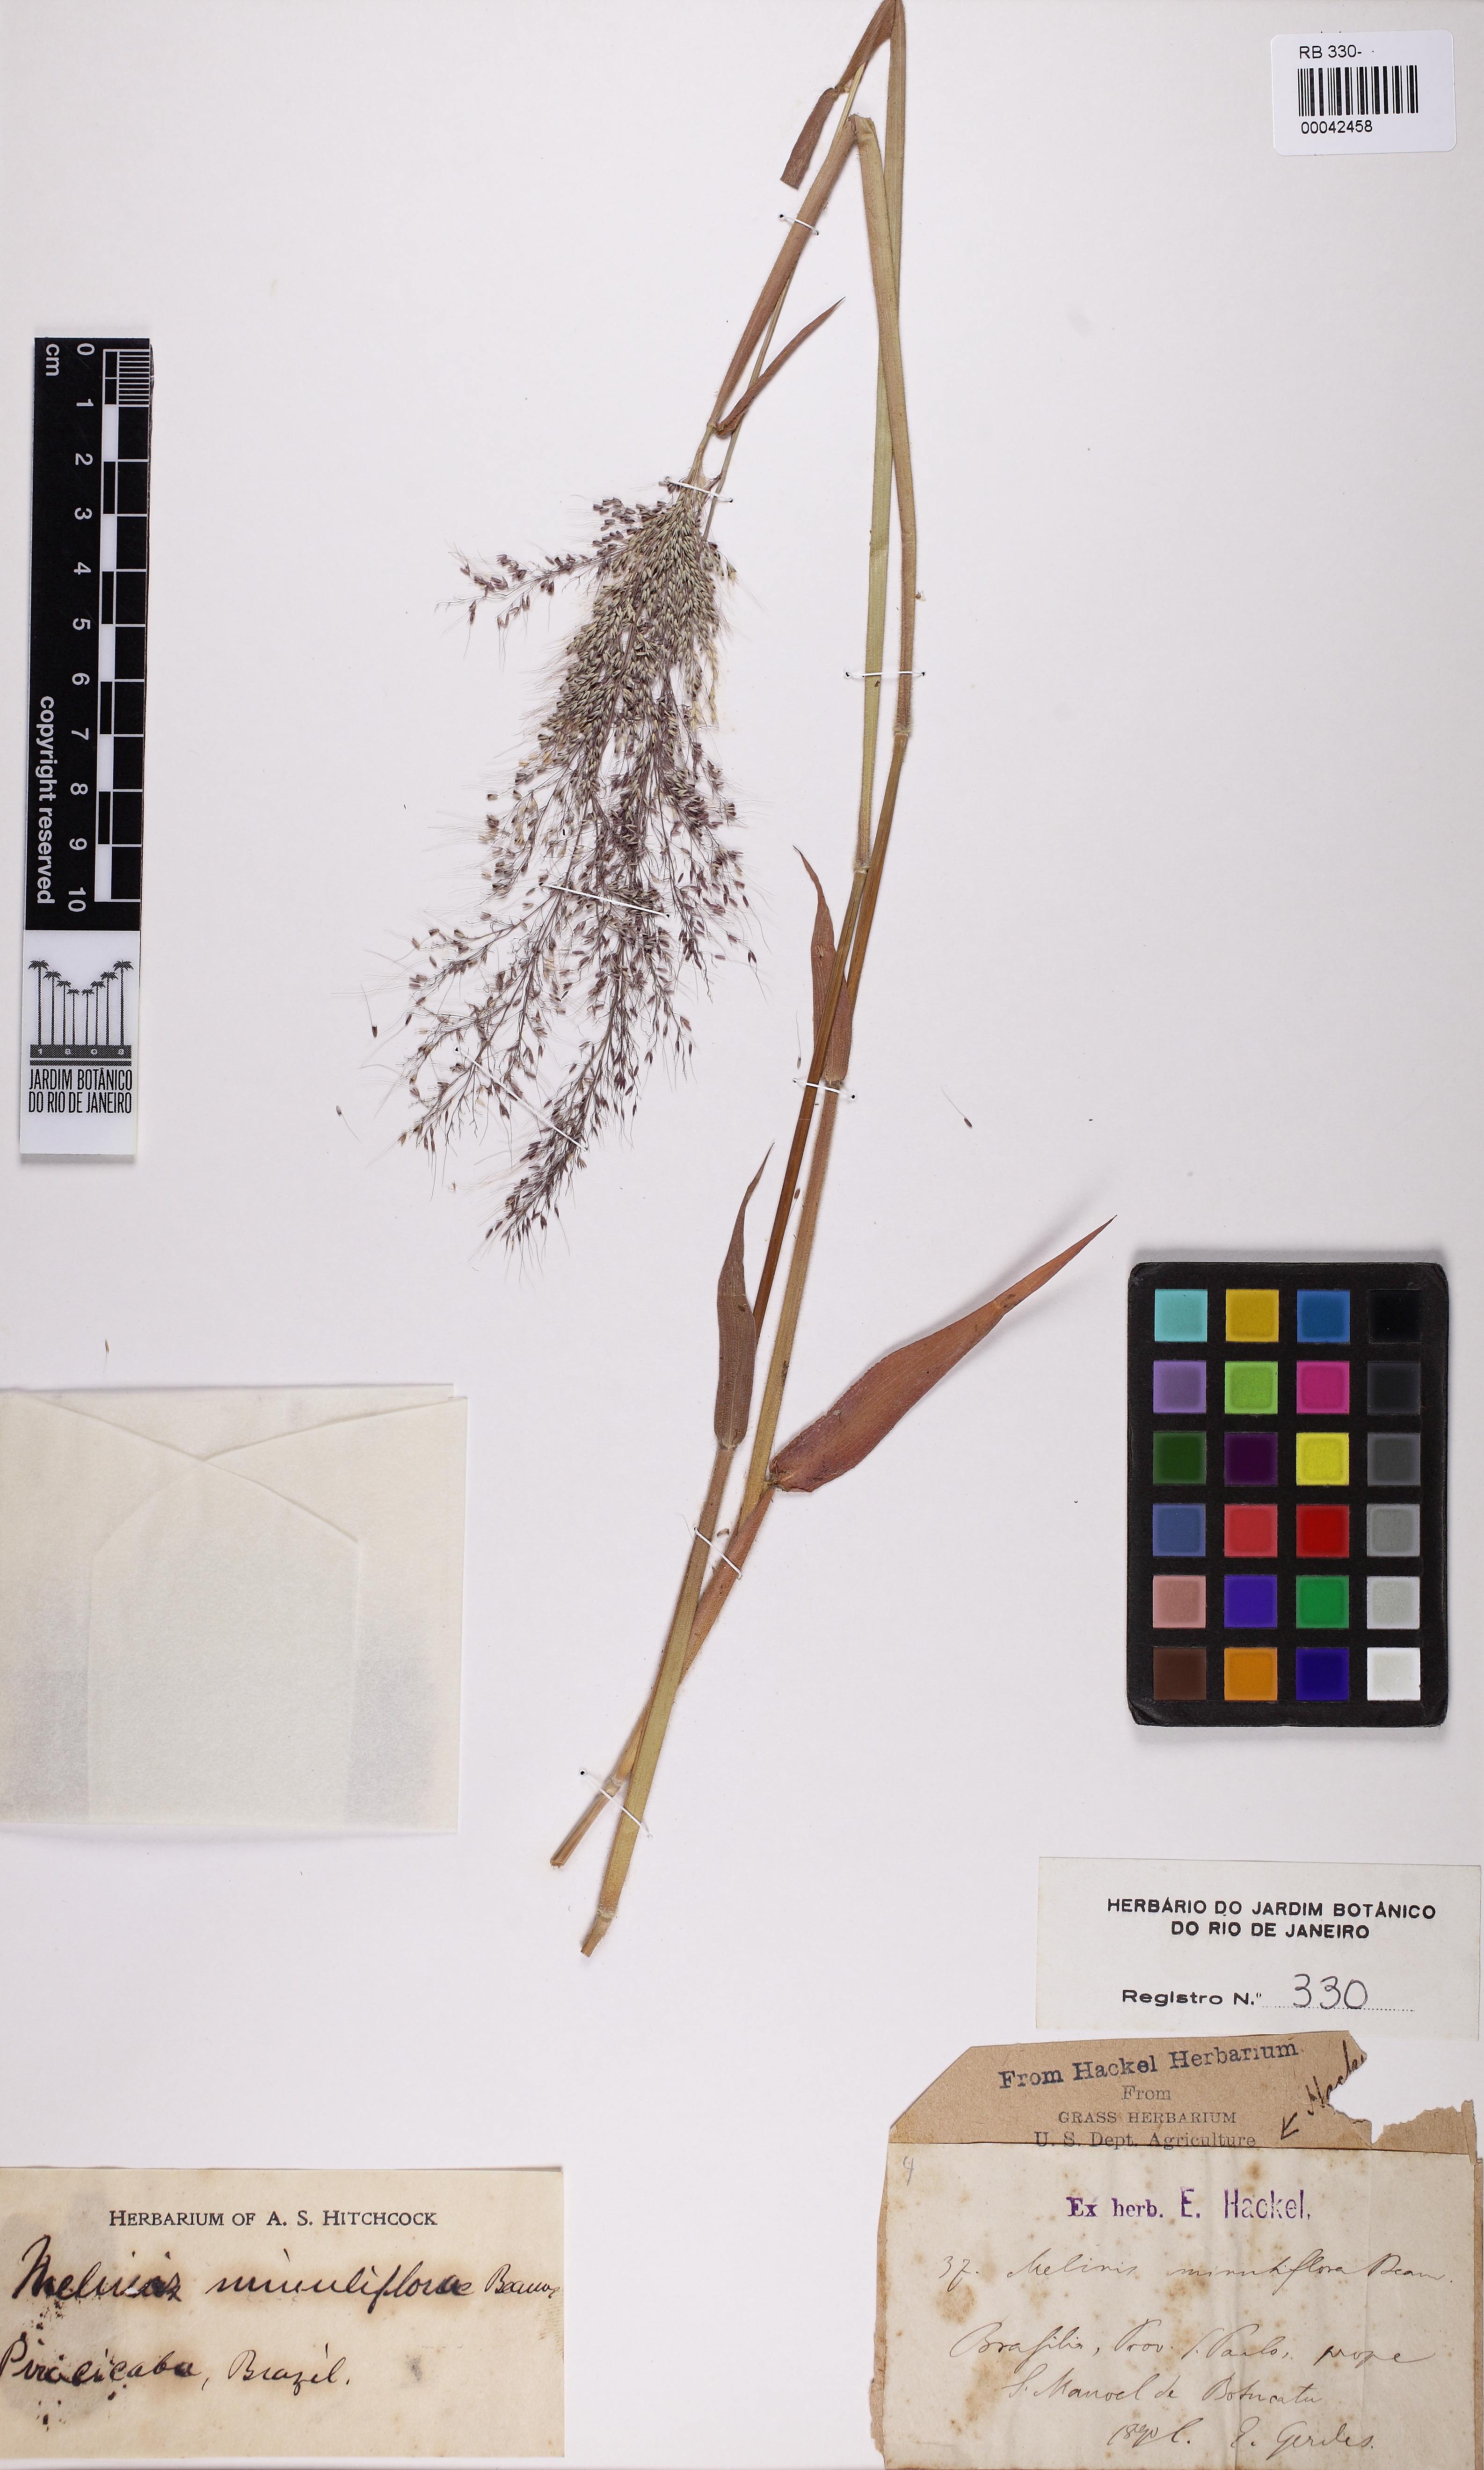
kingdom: Plantae
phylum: Tracheophyta
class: Liliopsida
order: Poales
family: Poaceae
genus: Melinis
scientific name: Melinis minutiflora
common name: Molassesgrass
